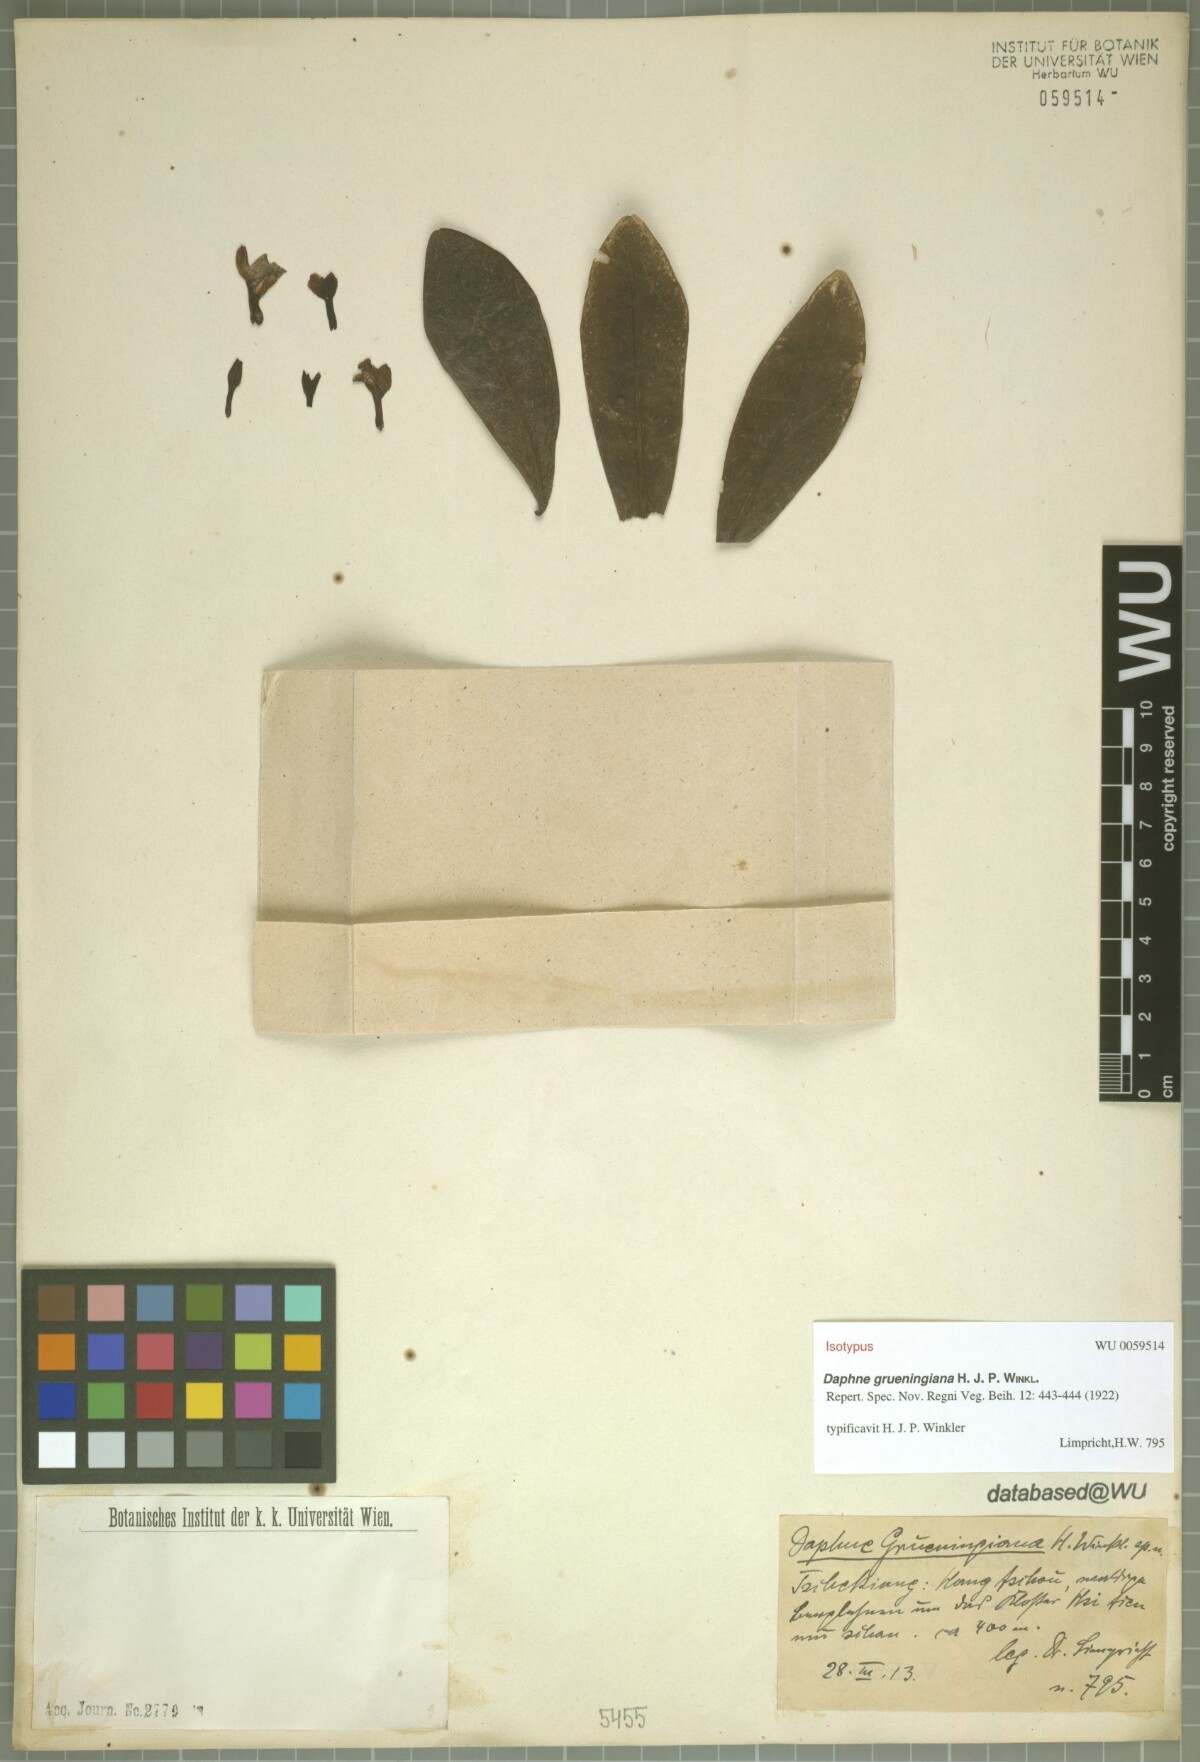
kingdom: Plantae
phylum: Tracheophyta
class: Magnoliopsida
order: Malvales
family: Thymelaeaceae
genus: Daphne
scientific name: Daphne grueningiana
